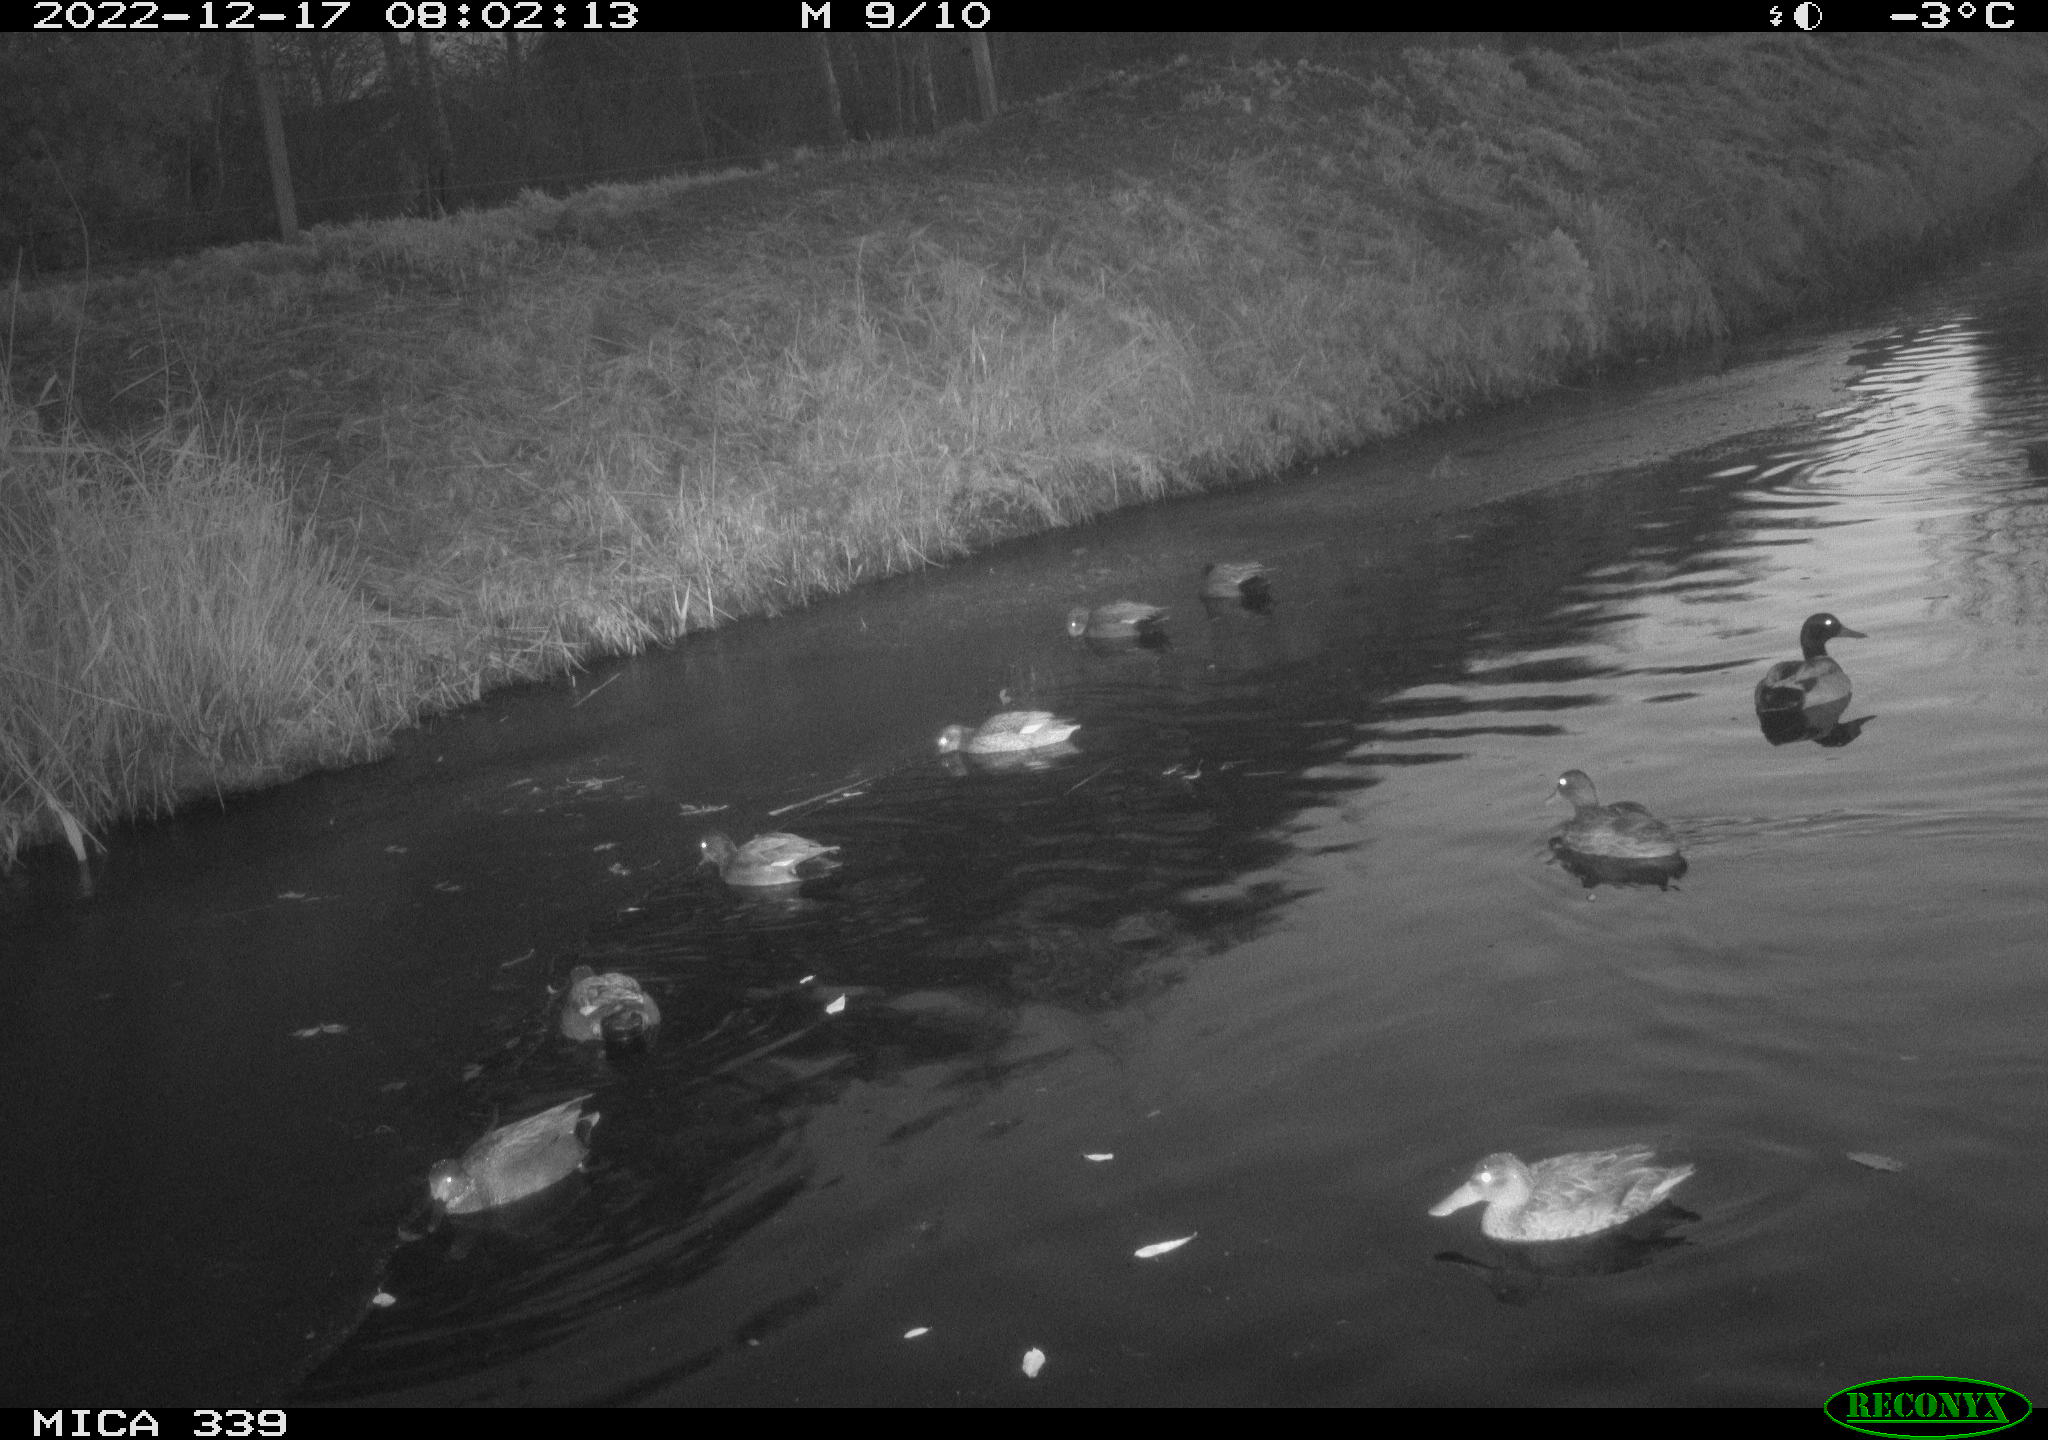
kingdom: Animalia
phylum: Chordata
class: Aves
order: Anseriformes
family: Anatidae
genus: Anas
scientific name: Anas
